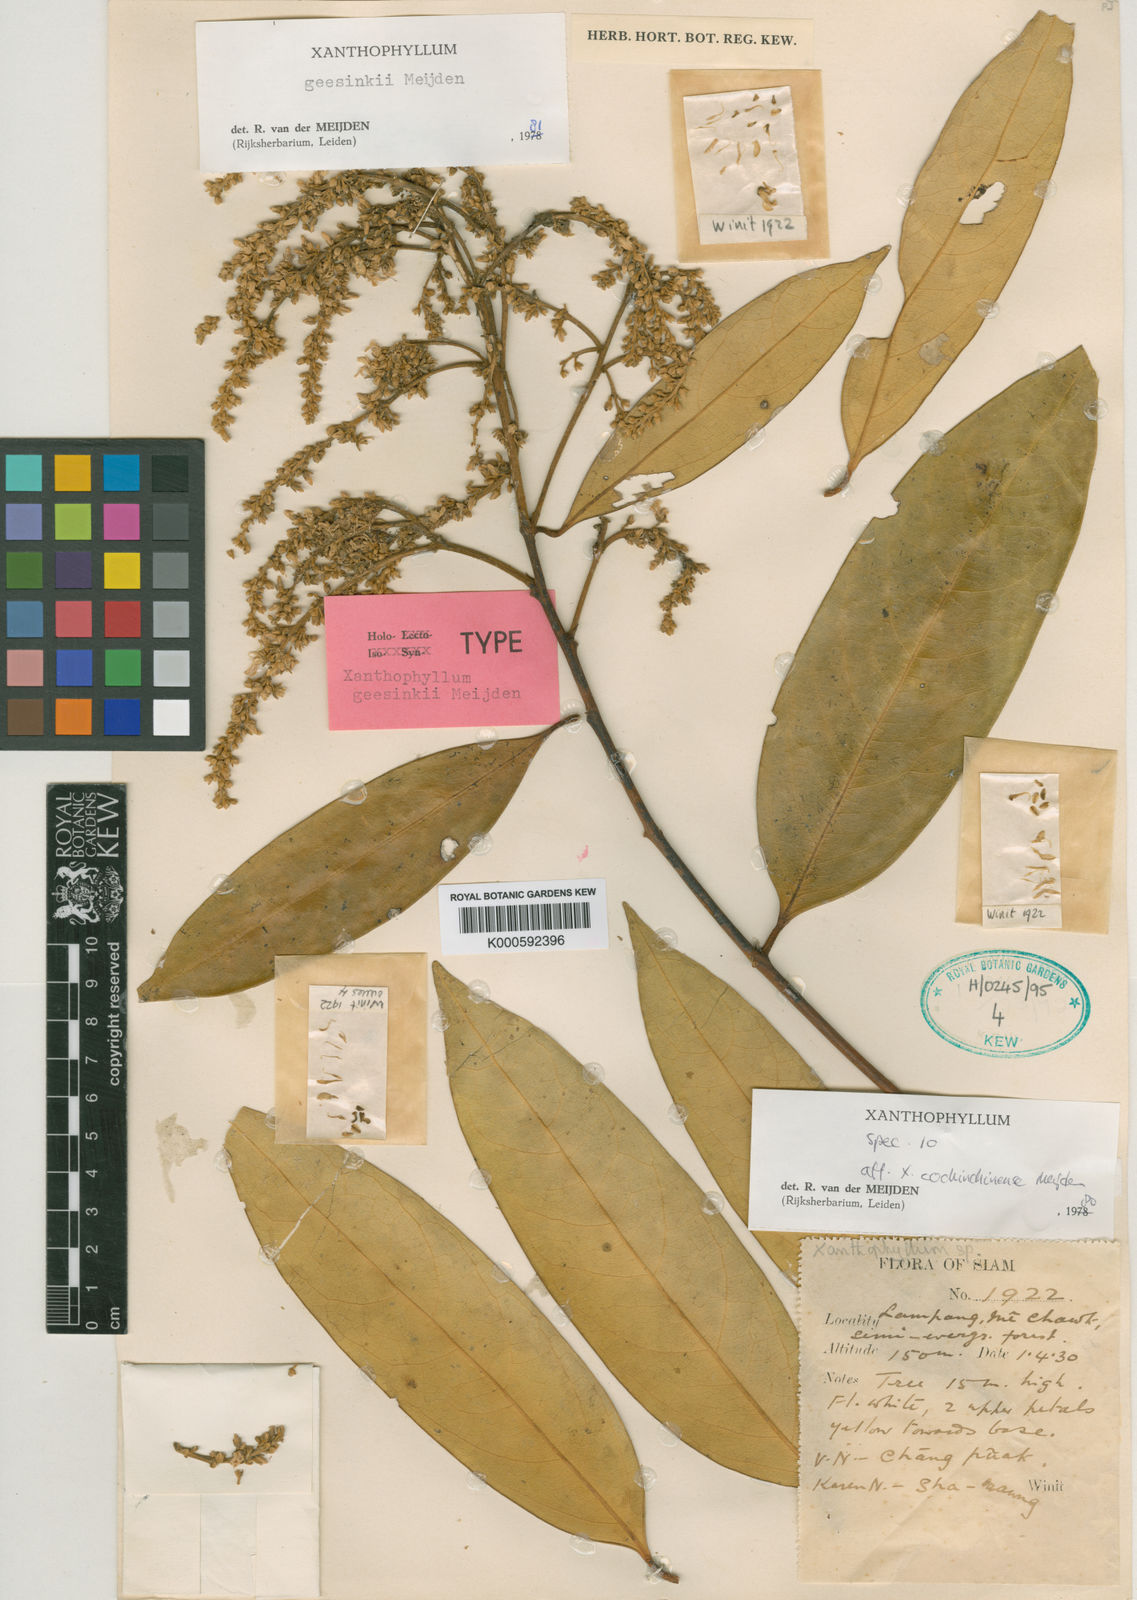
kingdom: Plantae
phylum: Tracheophyta
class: Magnoliopsida
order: Fabales
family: Polygalaceae
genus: Xanthophyllum
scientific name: Xanthophyllum geesinkii
